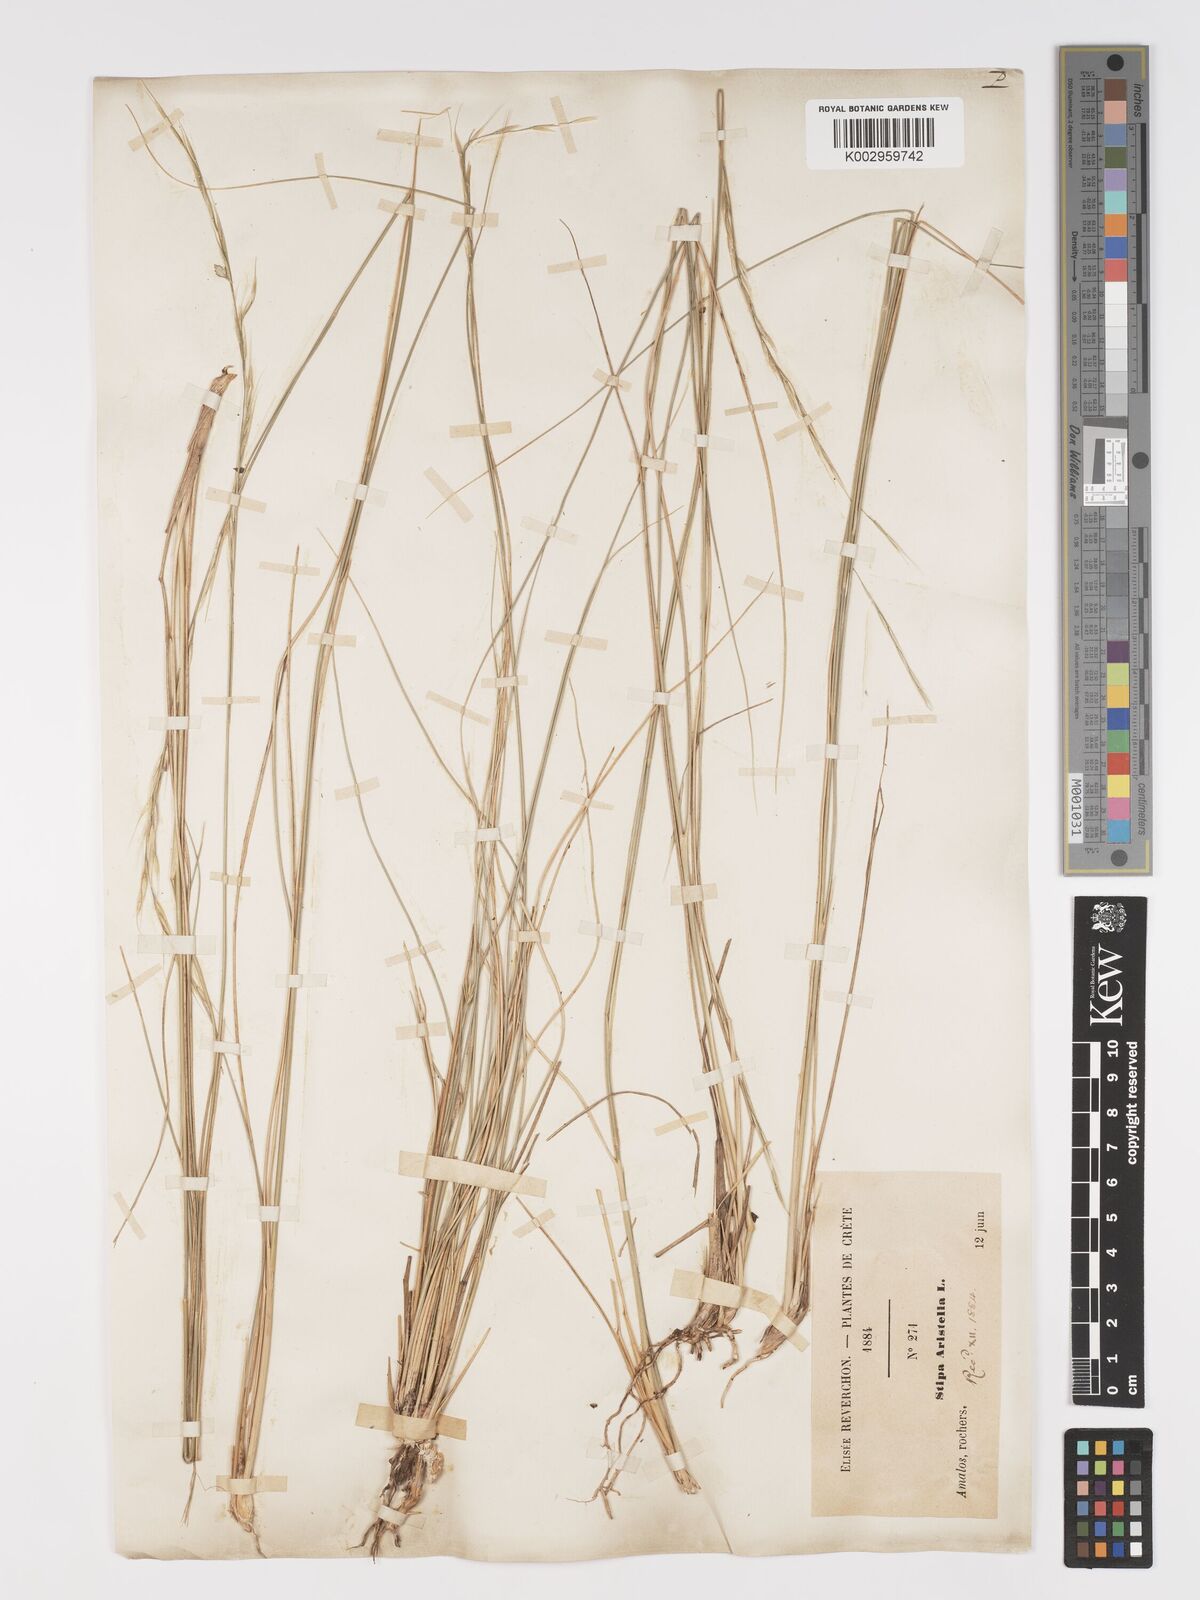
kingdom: Plantae
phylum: Tracheophyta
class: Liliopsida
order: Poales
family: Poaceae
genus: Achnatherum
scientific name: Achnatherum bromoides
